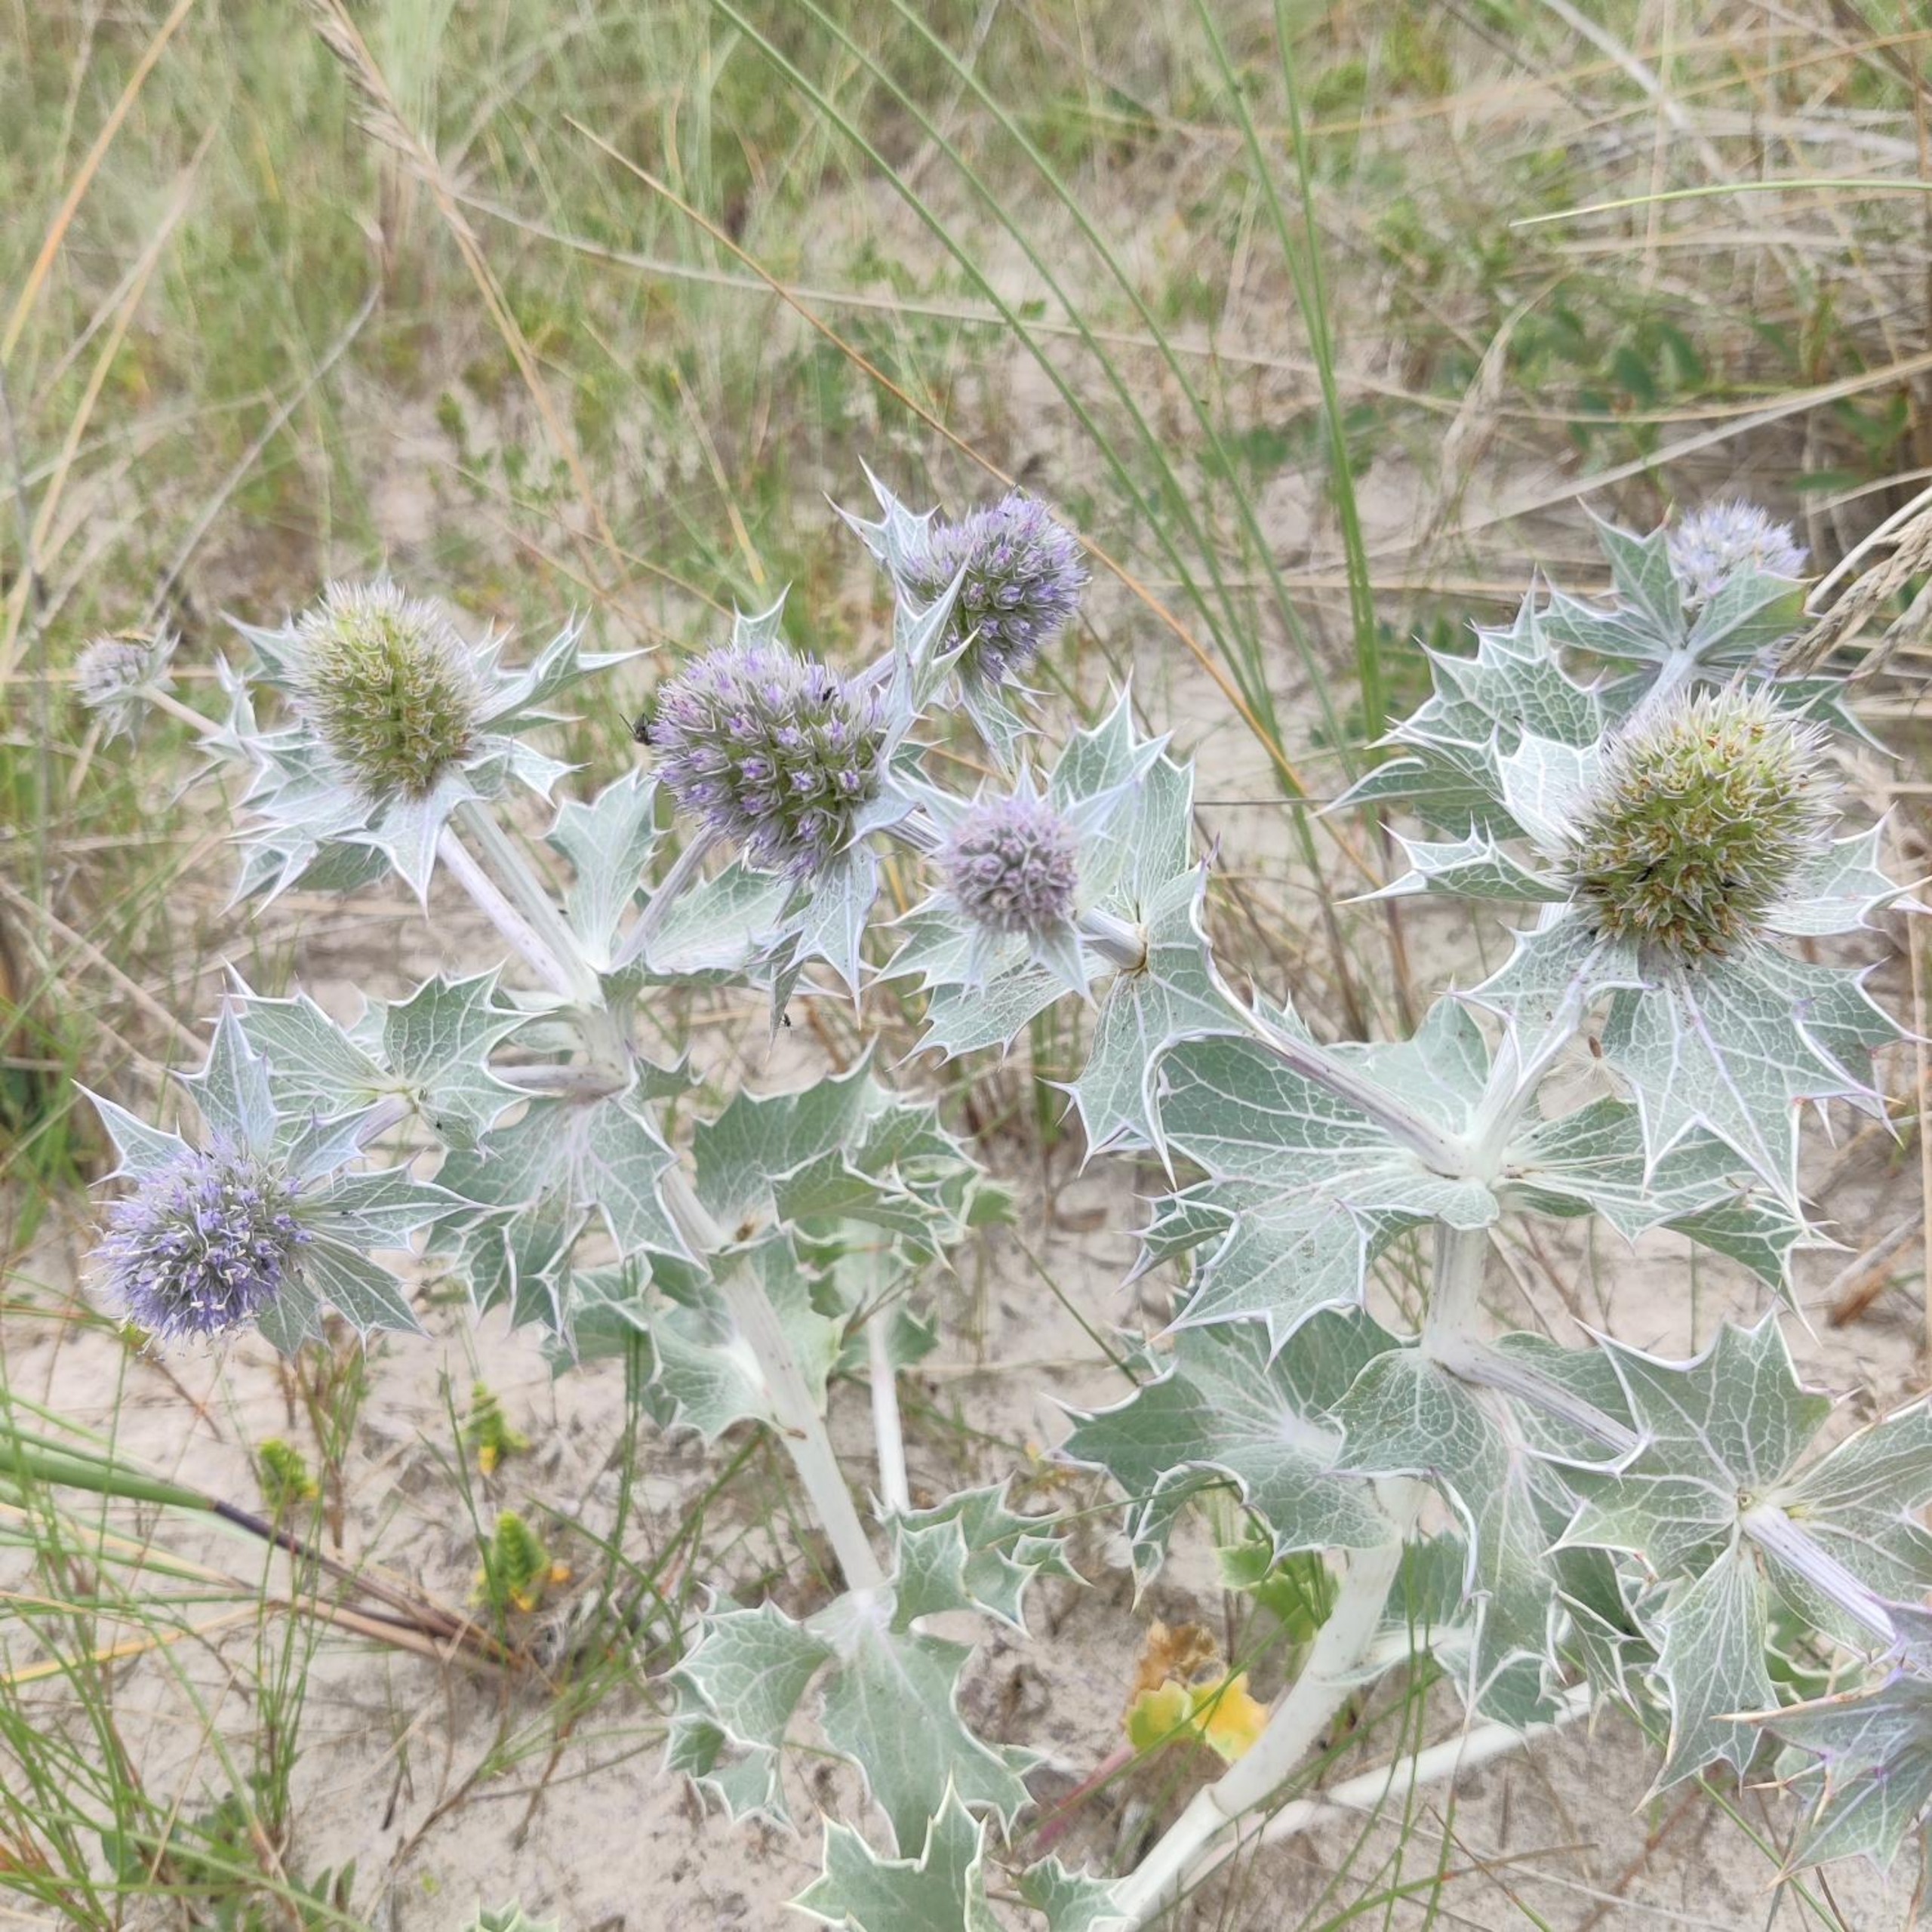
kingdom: Plantae
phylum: Tracheophyta
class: Magnoliopsida
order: Apiales
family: Apiaceae
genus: Eryngium
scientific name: Eryngium maritimum
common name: Strand-mandstro
